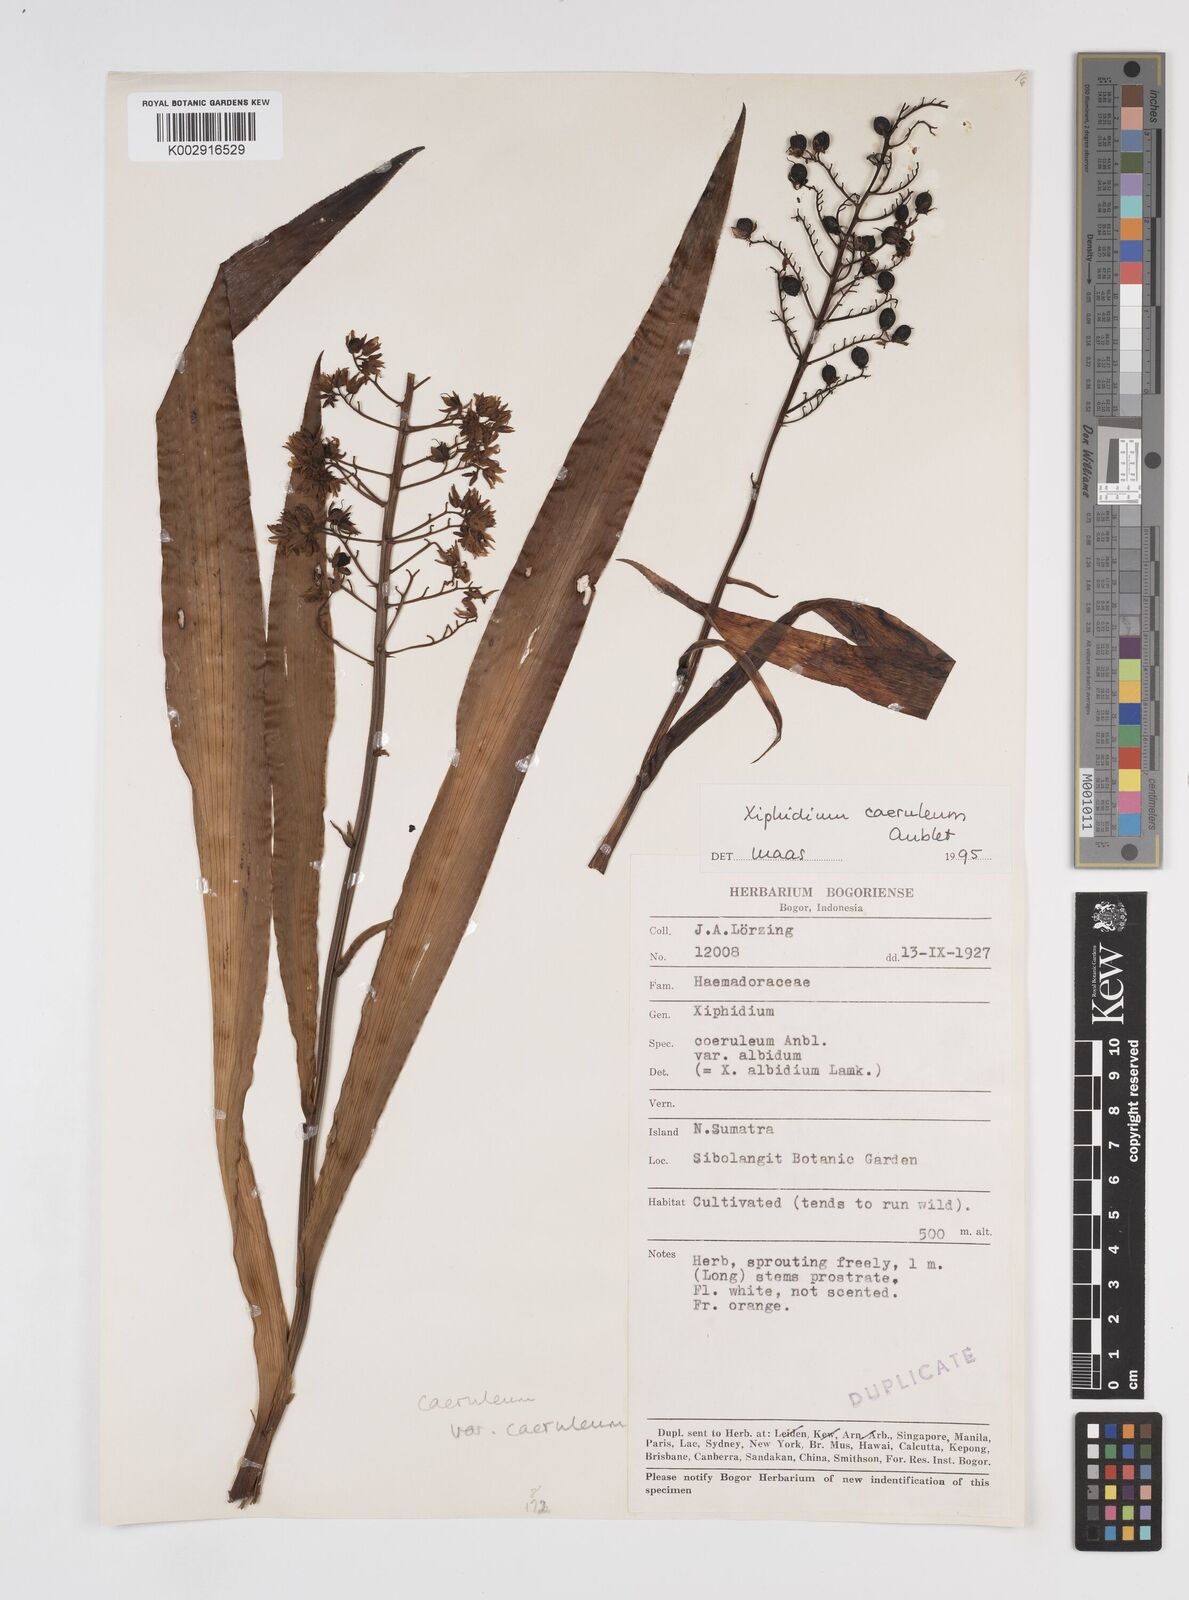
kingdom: Plantae
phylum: Tracheophyta
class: Liliopsida
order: Commelinales
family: Haemodoraceae
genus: Xiphidium
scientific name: Xiphidium caeruleum
